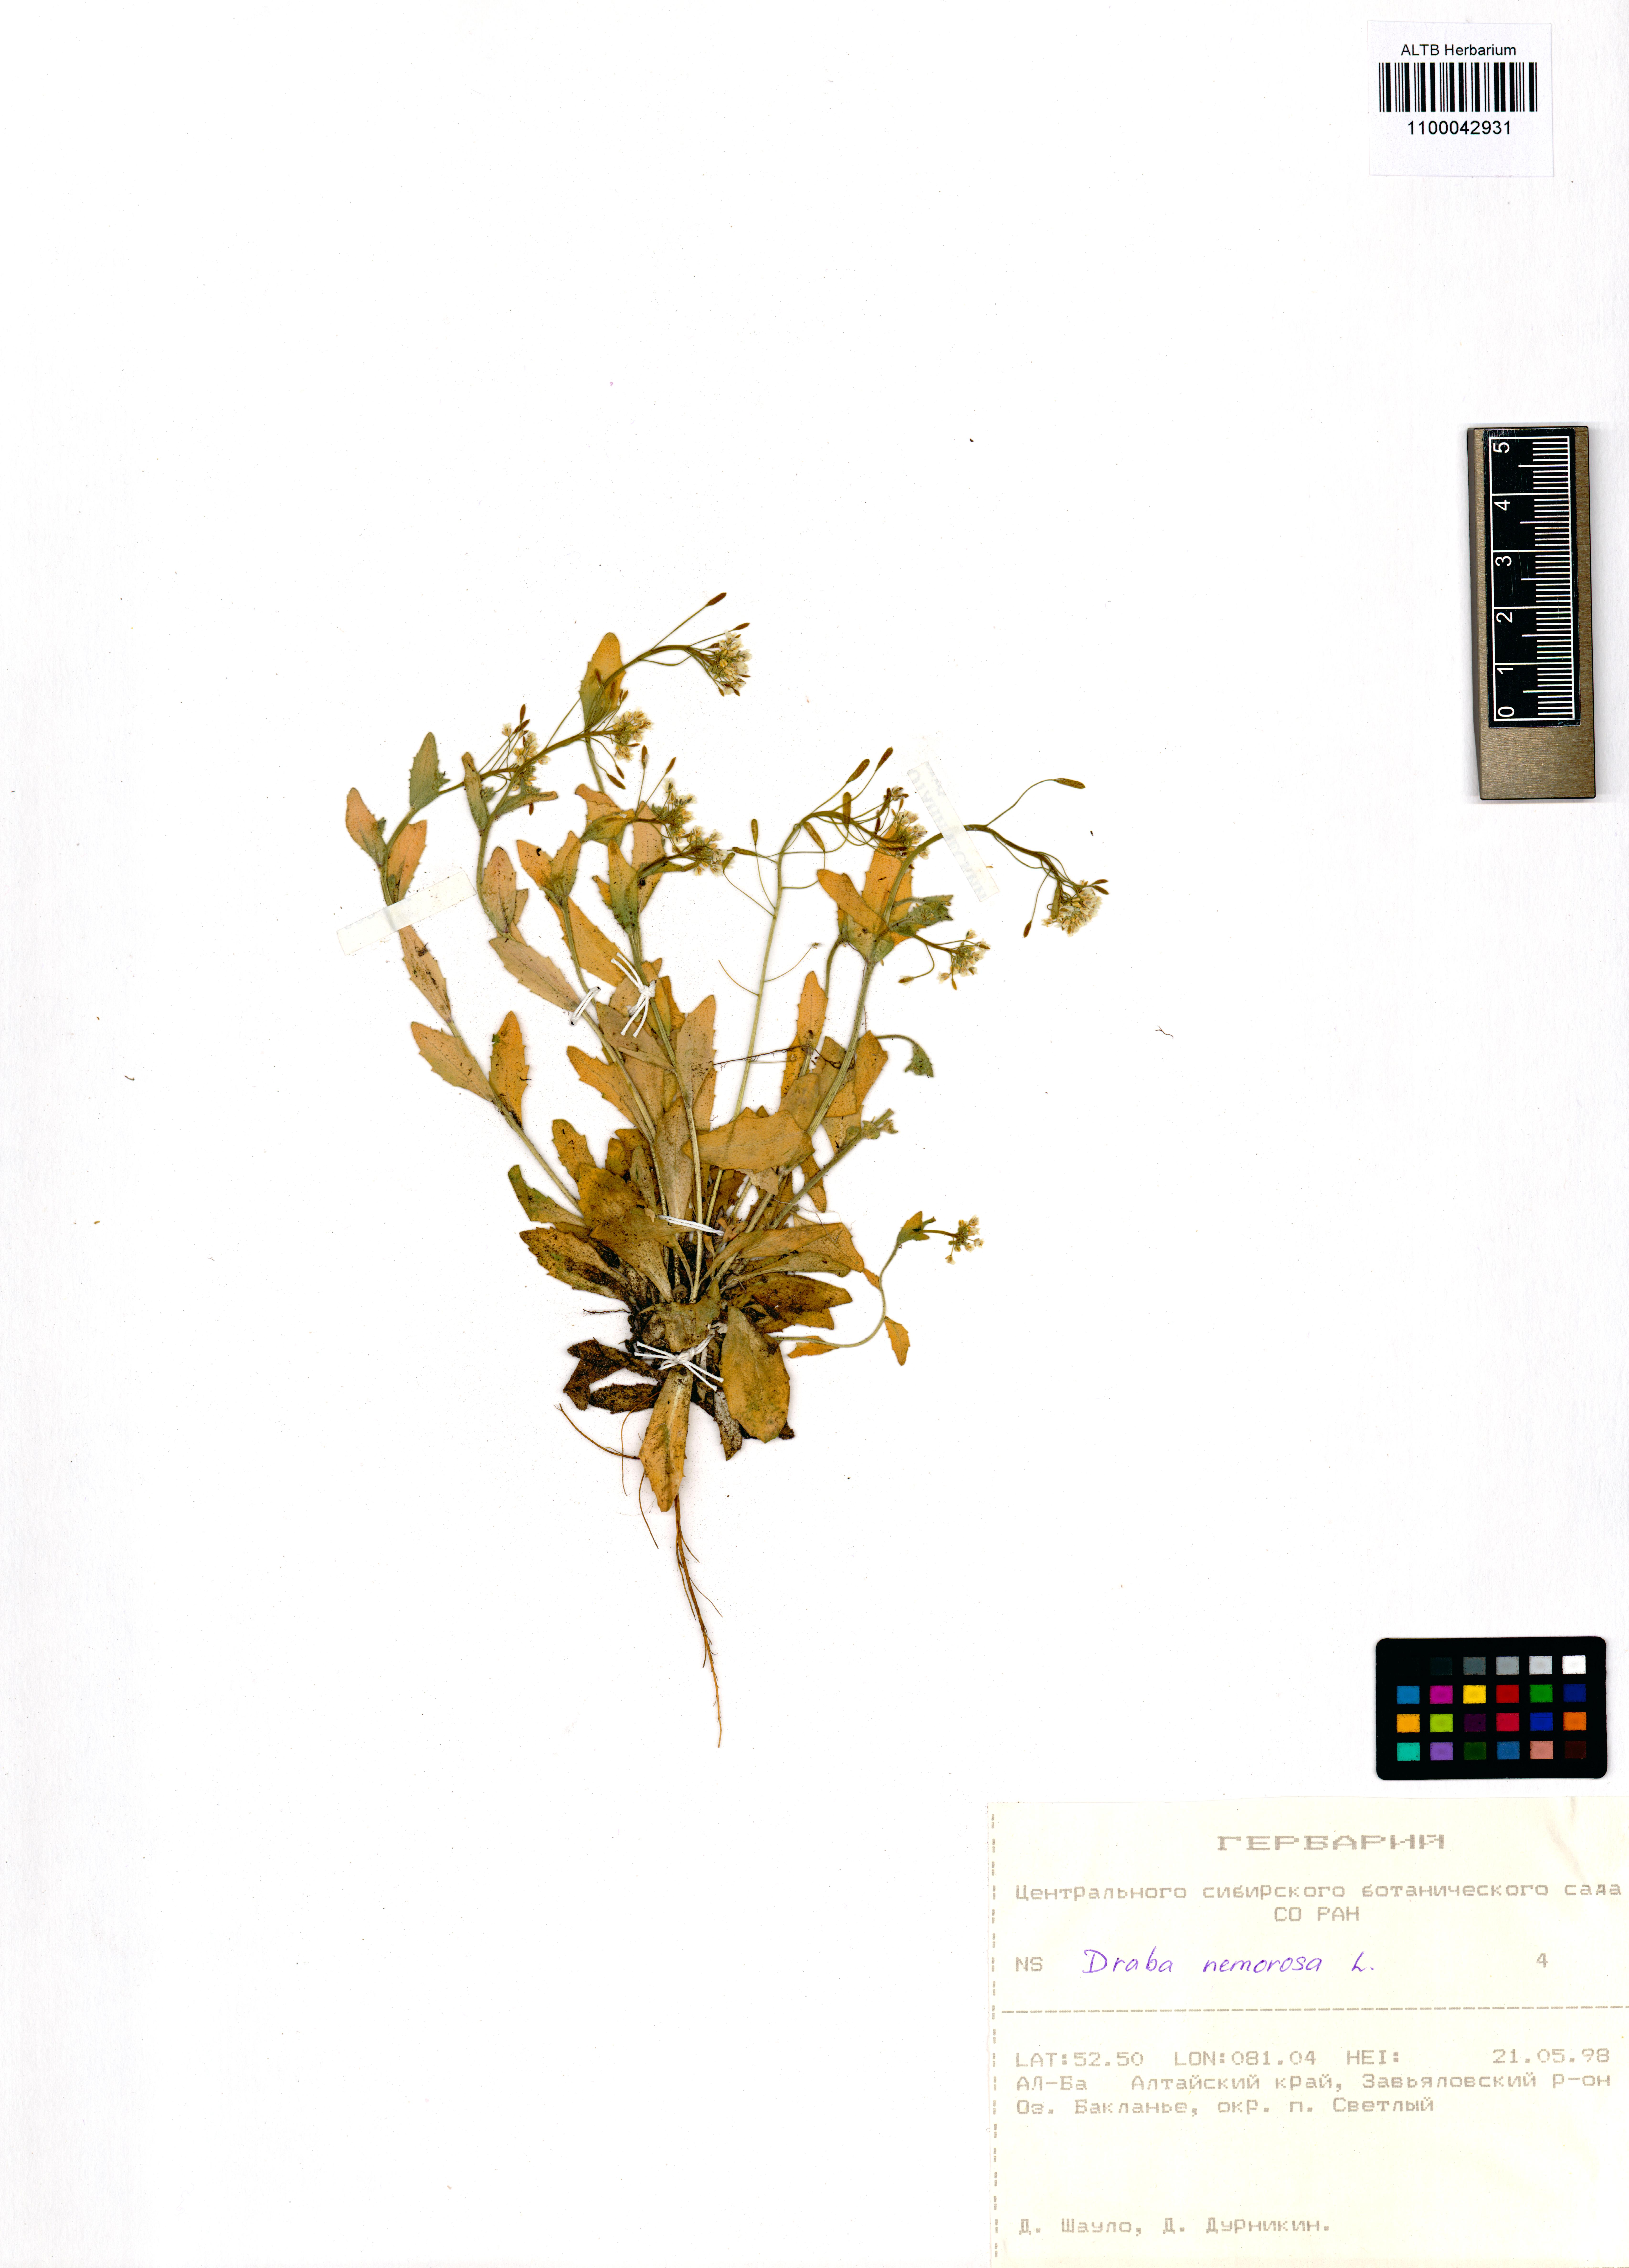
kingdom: Plantae
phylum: Tracheophyta
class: Magnoliopsida
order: Brassicales
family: Brassicaceae
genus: Draba
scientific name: Draba nemorosa
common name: Wood whitlow-grass
